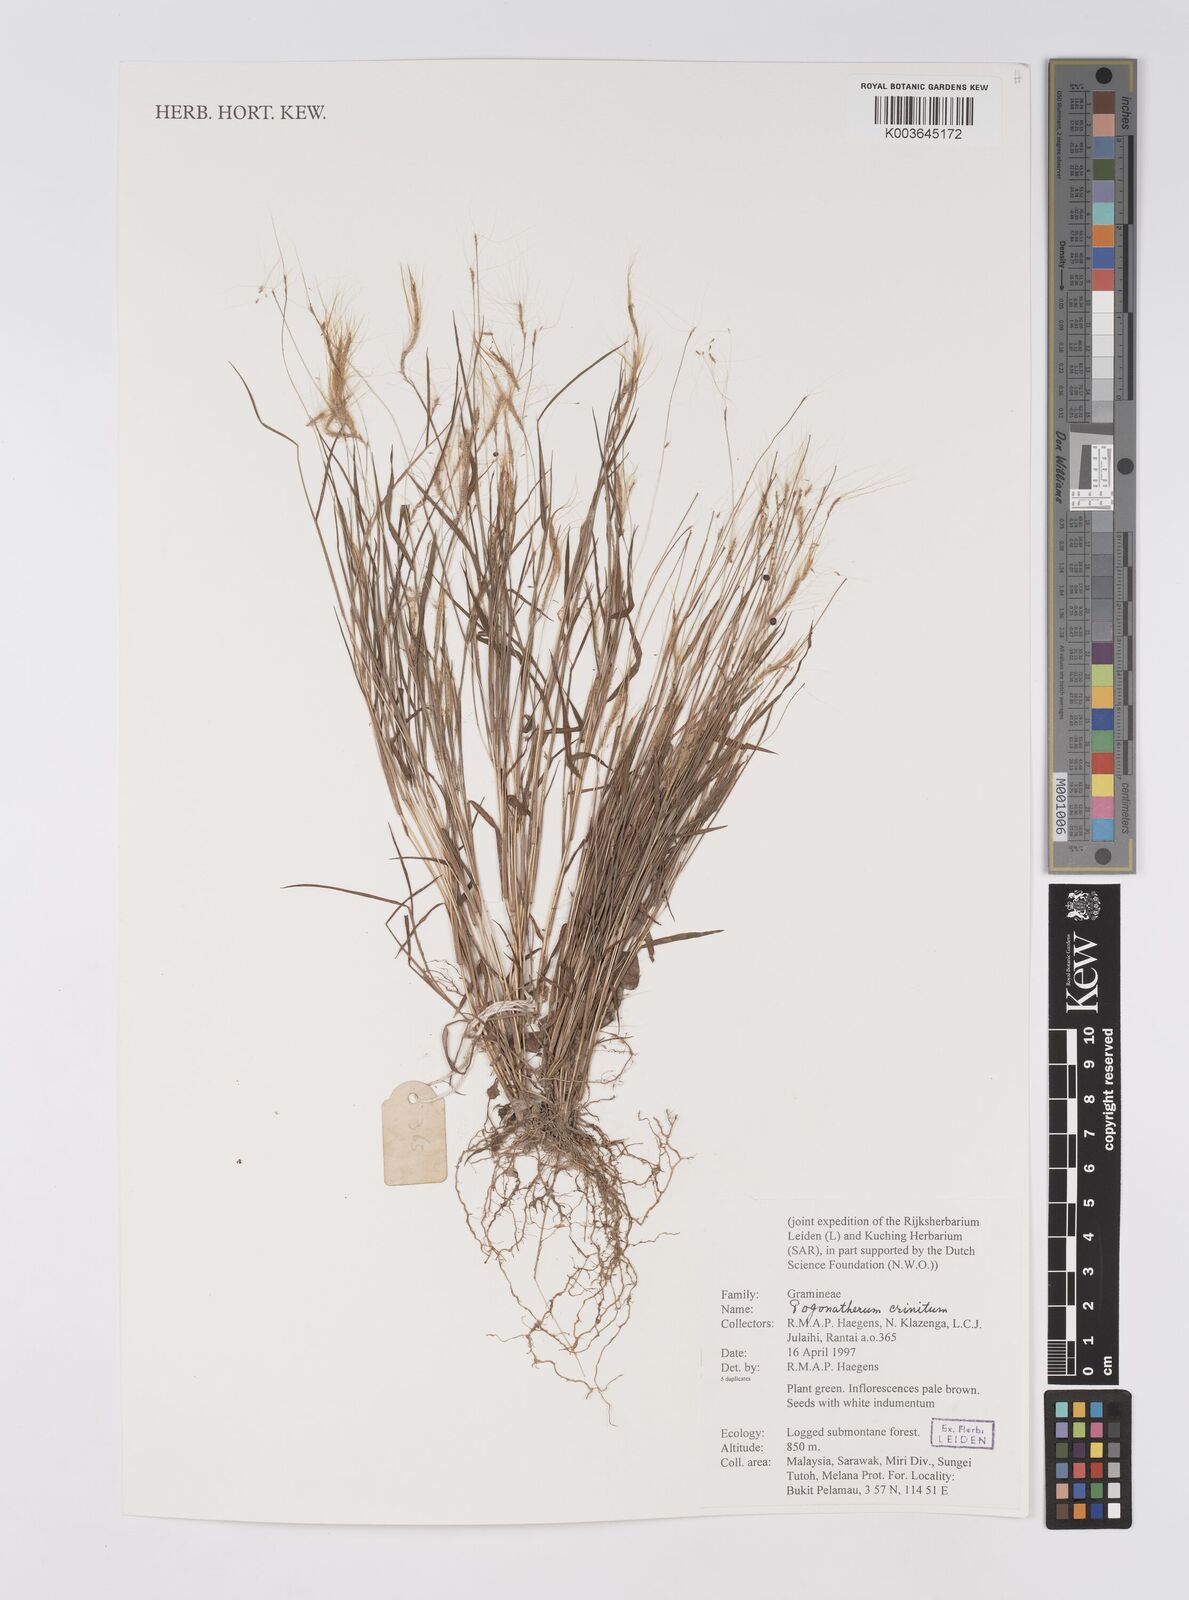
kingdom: Plantae
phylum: Tracheophyta
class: Liliopsida
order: Poales
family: Poaceae
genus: Pogonatherum
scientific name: Pogonatherum crinitum
